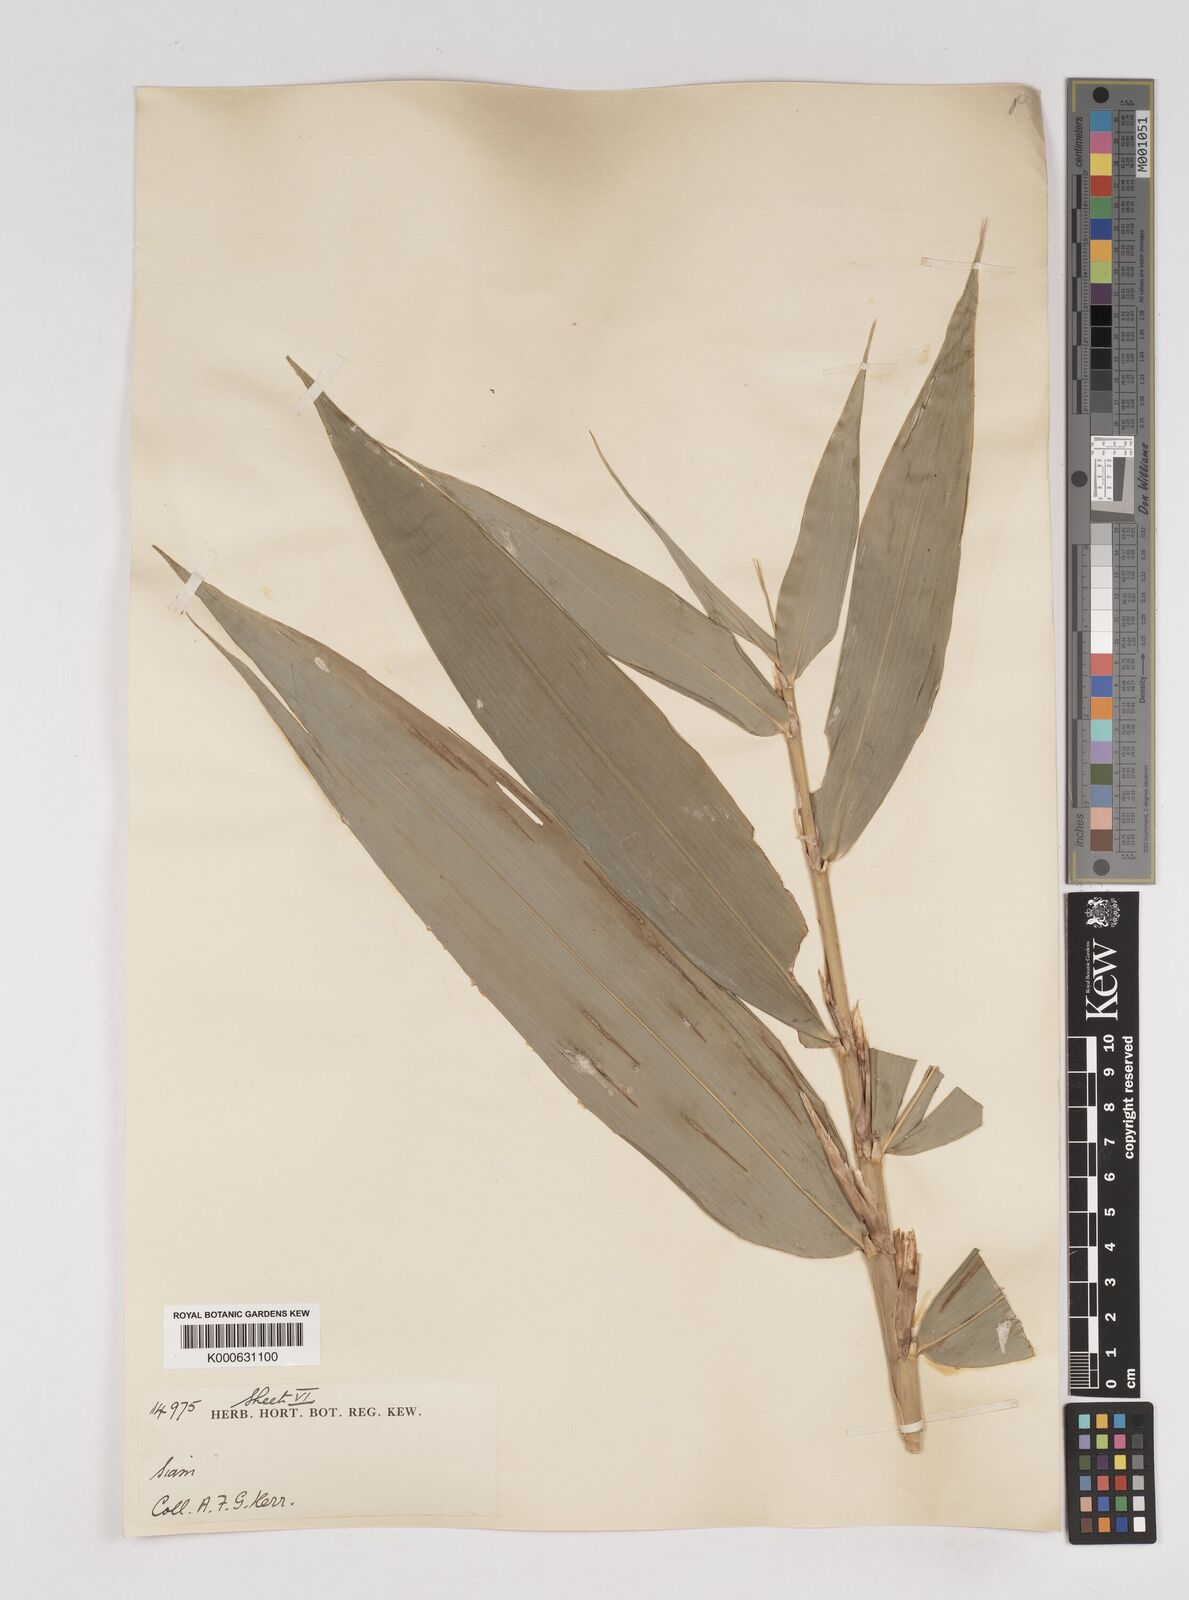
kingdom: Plantae
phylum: Tracheophyta
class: Liliopsida
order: Poales
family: Poaceae
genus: Gigantochloa
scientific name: Gigantochloa ligulata
